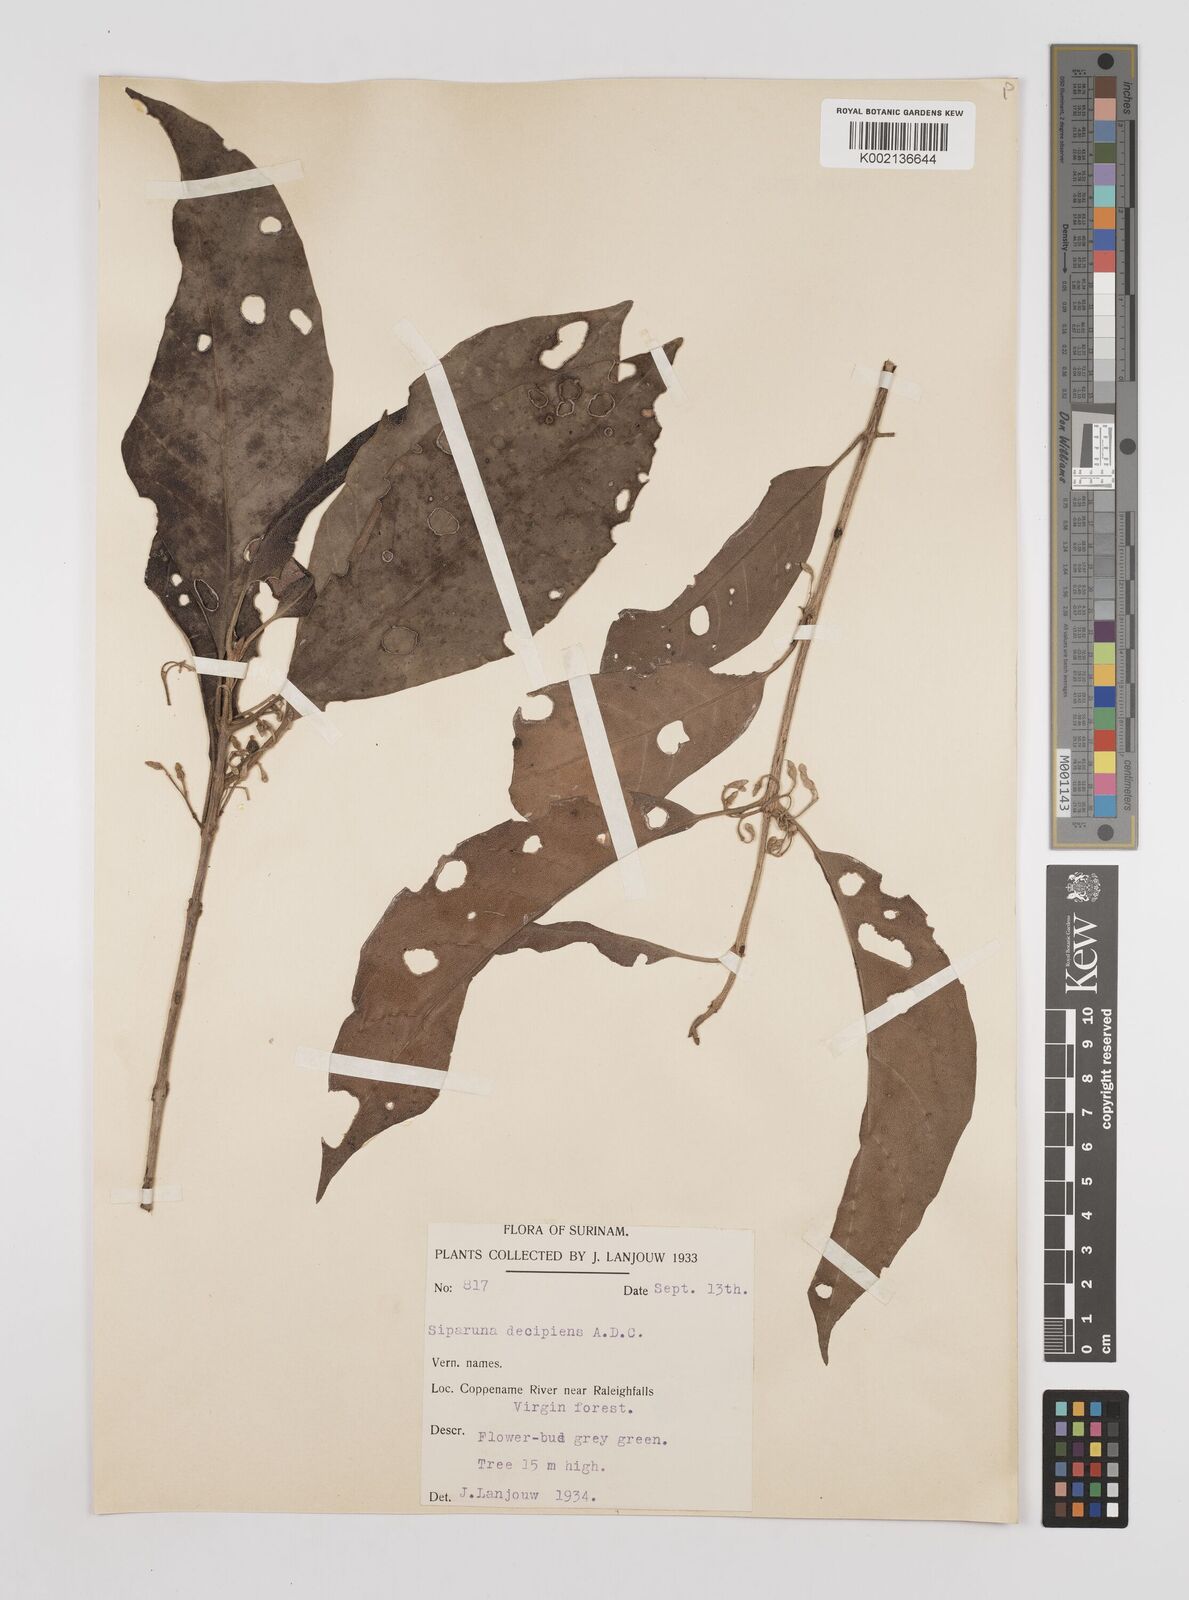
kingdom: Plantae
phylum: Tracheophyta
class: Magnoliopsida
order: Laurales
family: Siparunaceae
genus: Siparuna
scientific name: Siparuna decipiens
